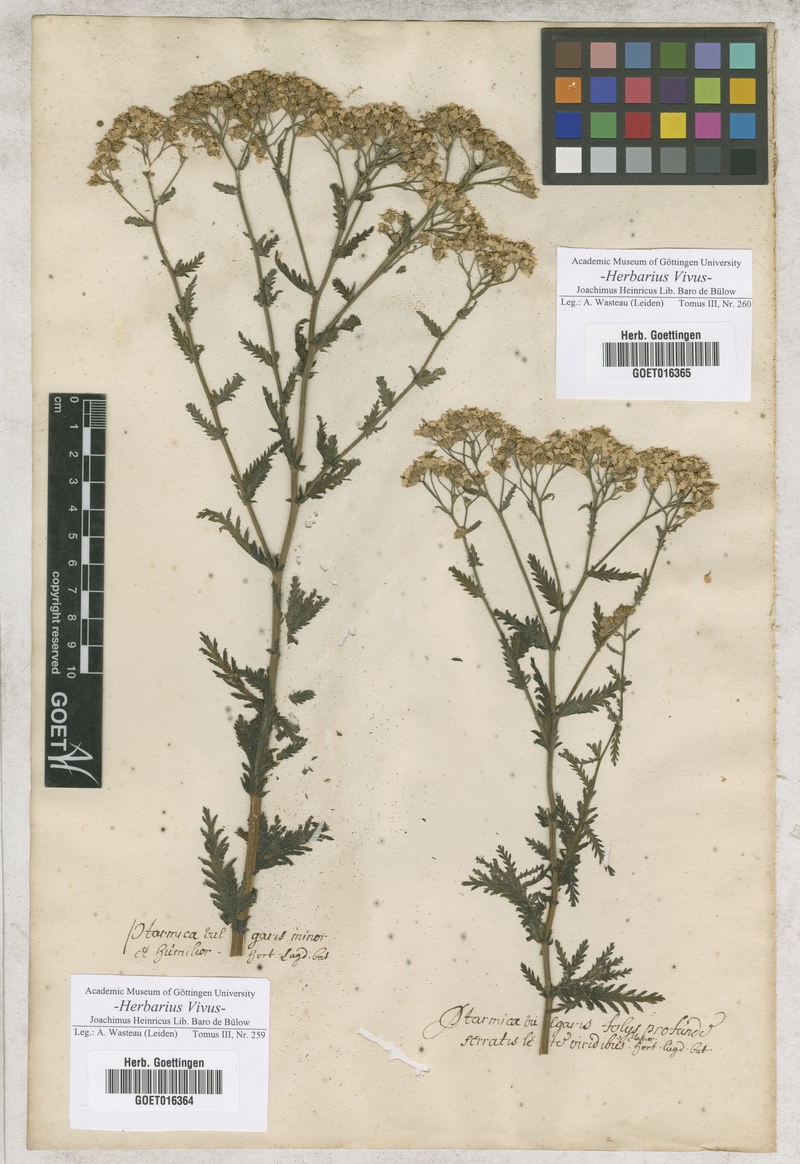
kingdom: Plantae
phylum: Tracheophyta
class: Magnoliopsida
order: Asterales
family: Asteraceae
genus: Achillea
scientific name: Achillea ptarmica
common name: Sneezeweed
